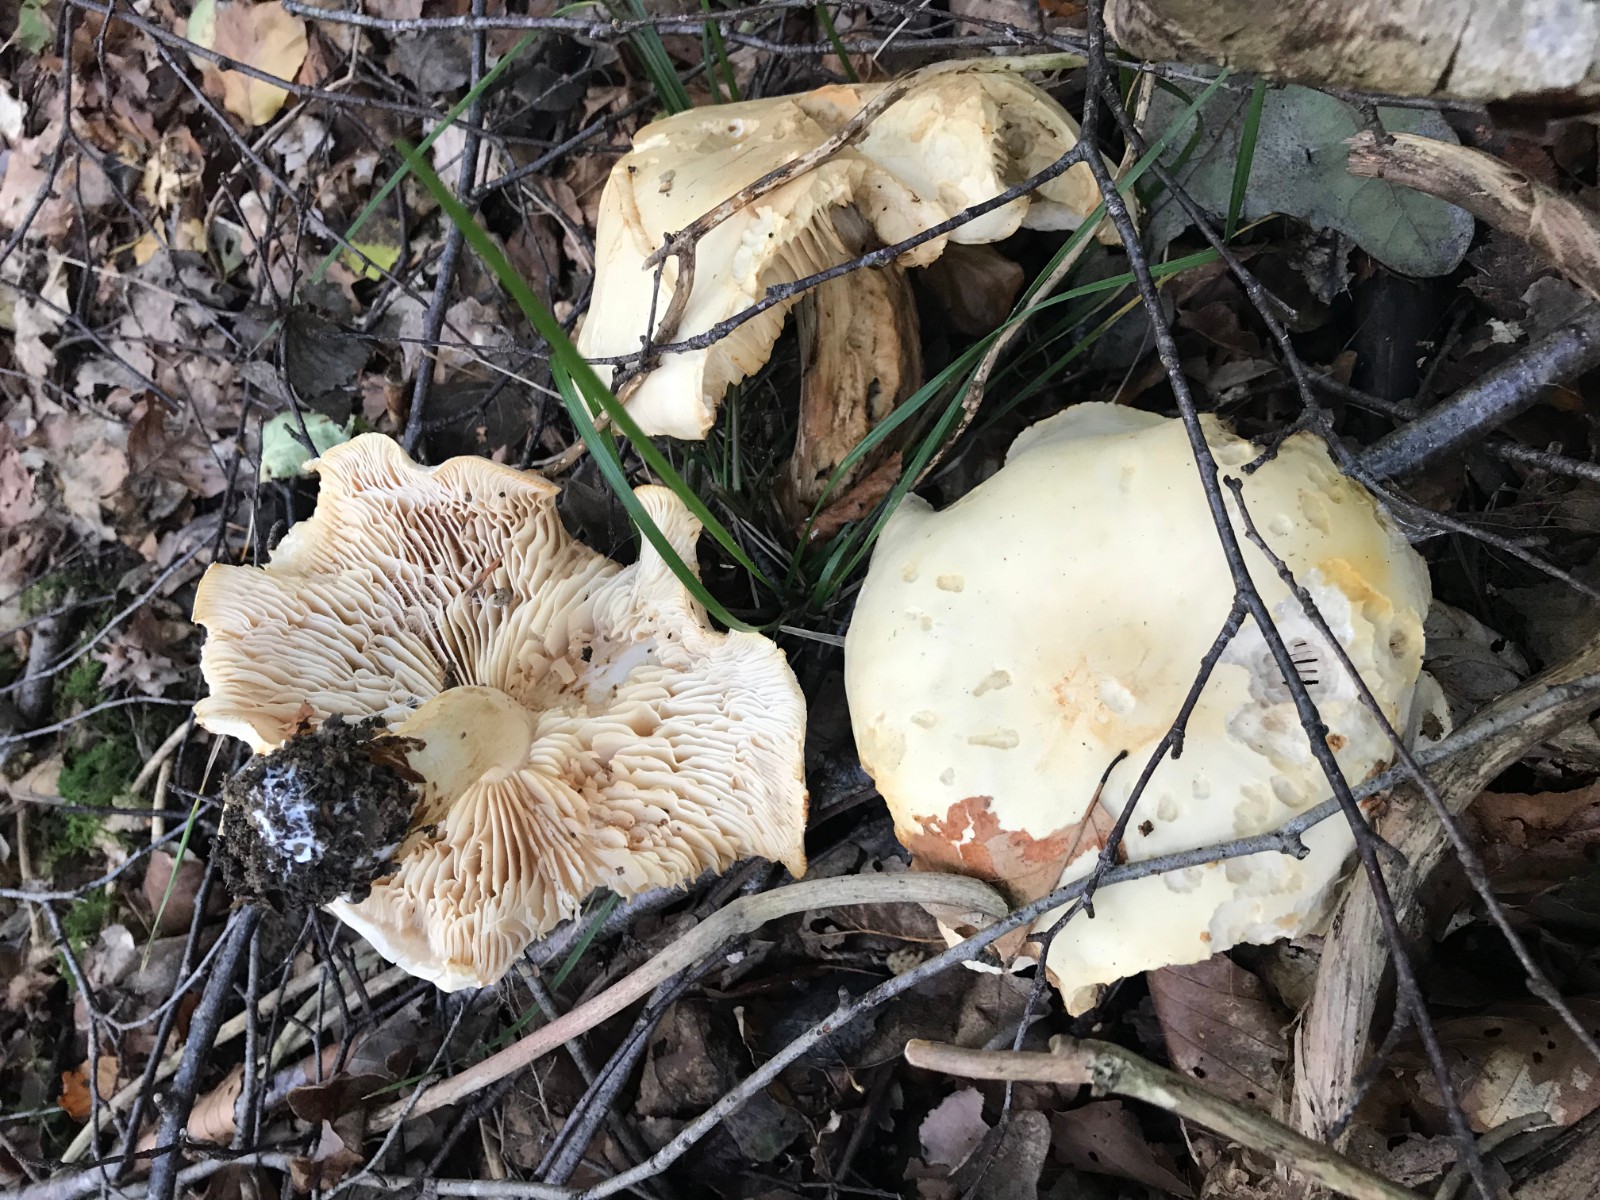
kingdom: Fungi
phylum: Basidiomycota
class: Agaricomycetes
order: Agaricales
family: Tricholomataceae
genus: Tricholoma
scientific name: Tricholoma stiparophyllum
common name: hvid ridderhat
